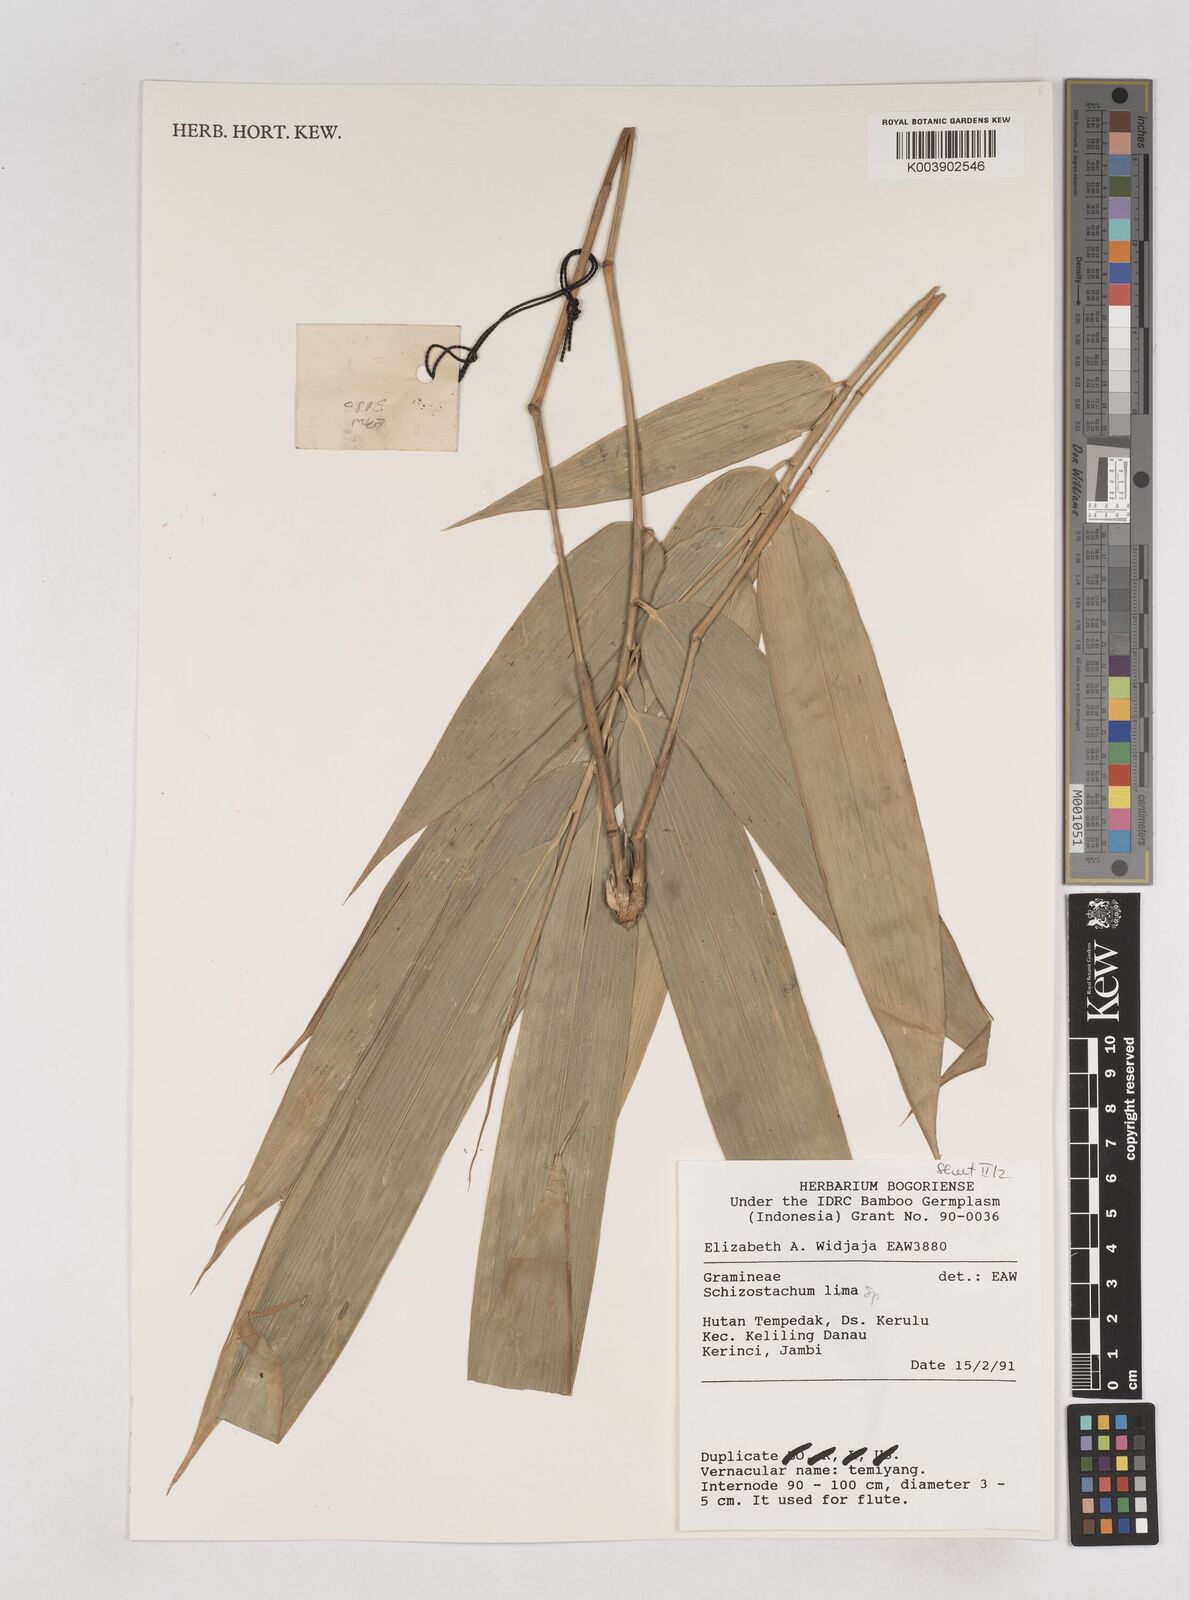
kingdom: Plantae
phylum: Tracheophyta
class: Liliopsida
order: Poales
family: Poaceae
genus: Schizostachyum
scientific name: Schizostachyum
